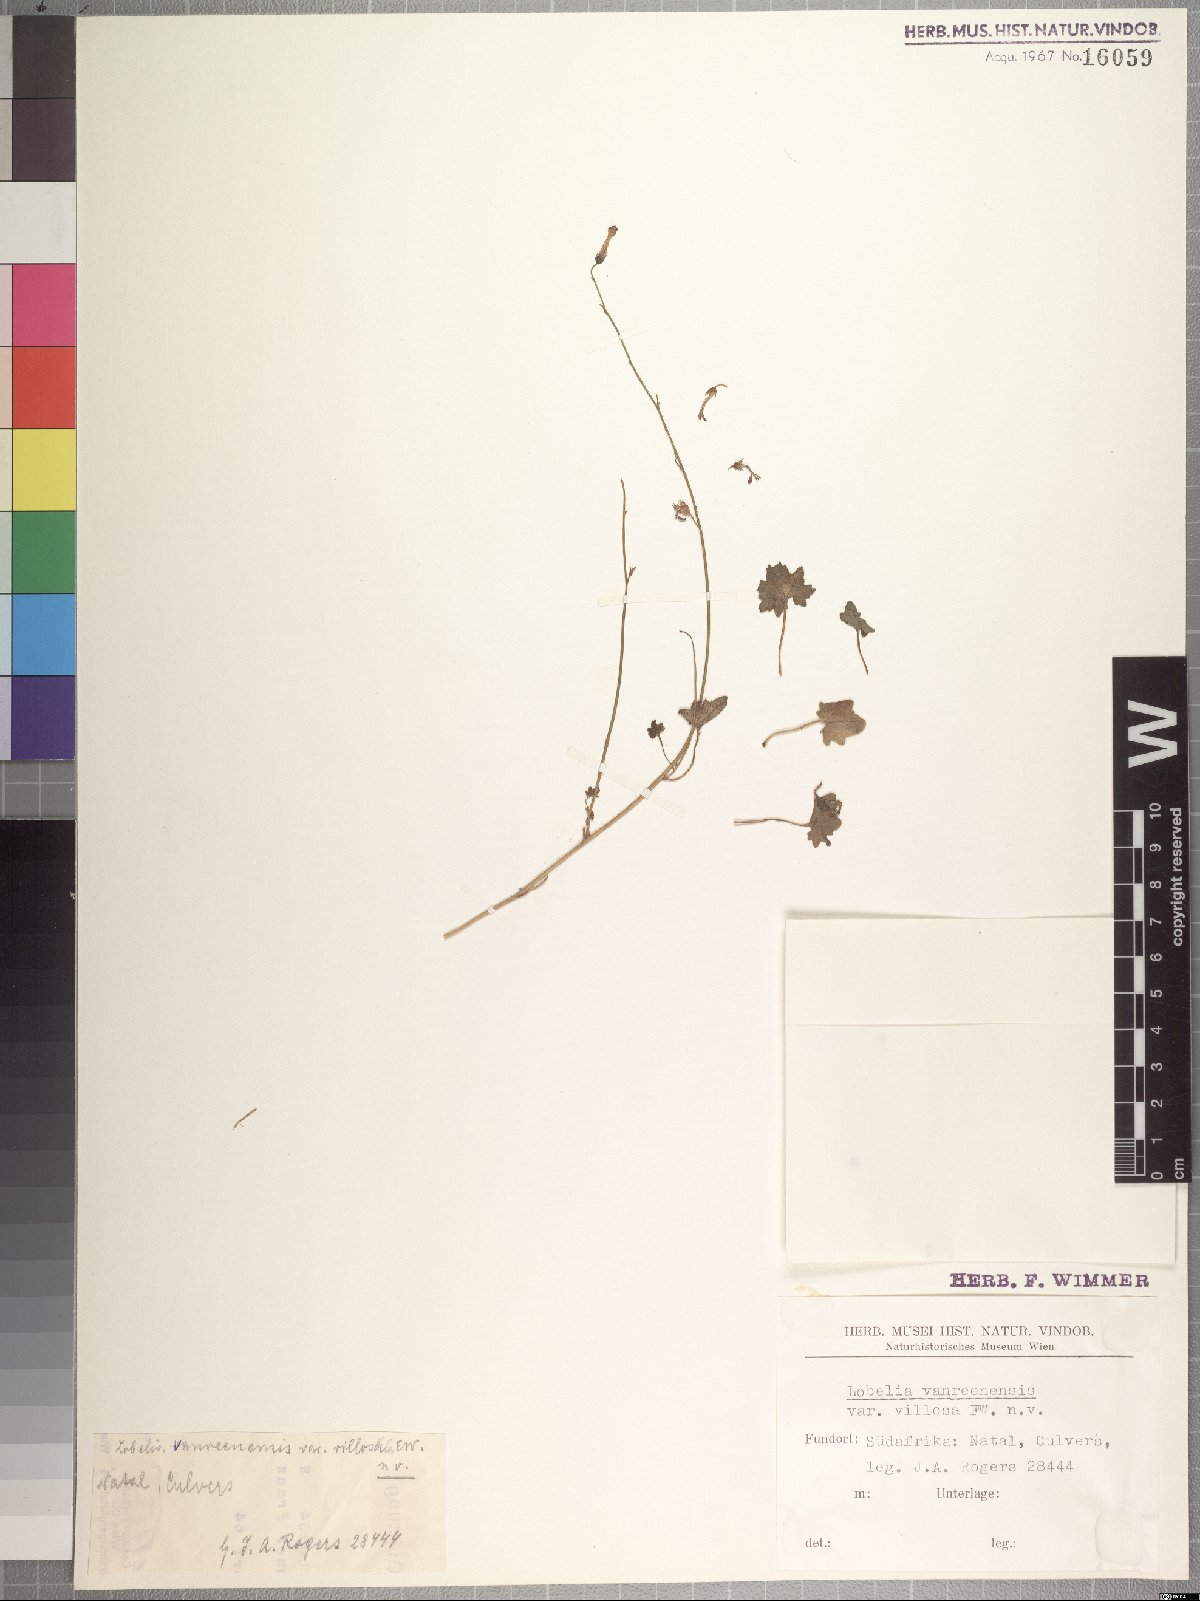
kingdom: Plantae
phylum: Tracheophyta
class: Magnoliopsida
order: Asterales
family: Campanulaceae
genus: Lobelia
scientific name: Lobelia vanreenensis
